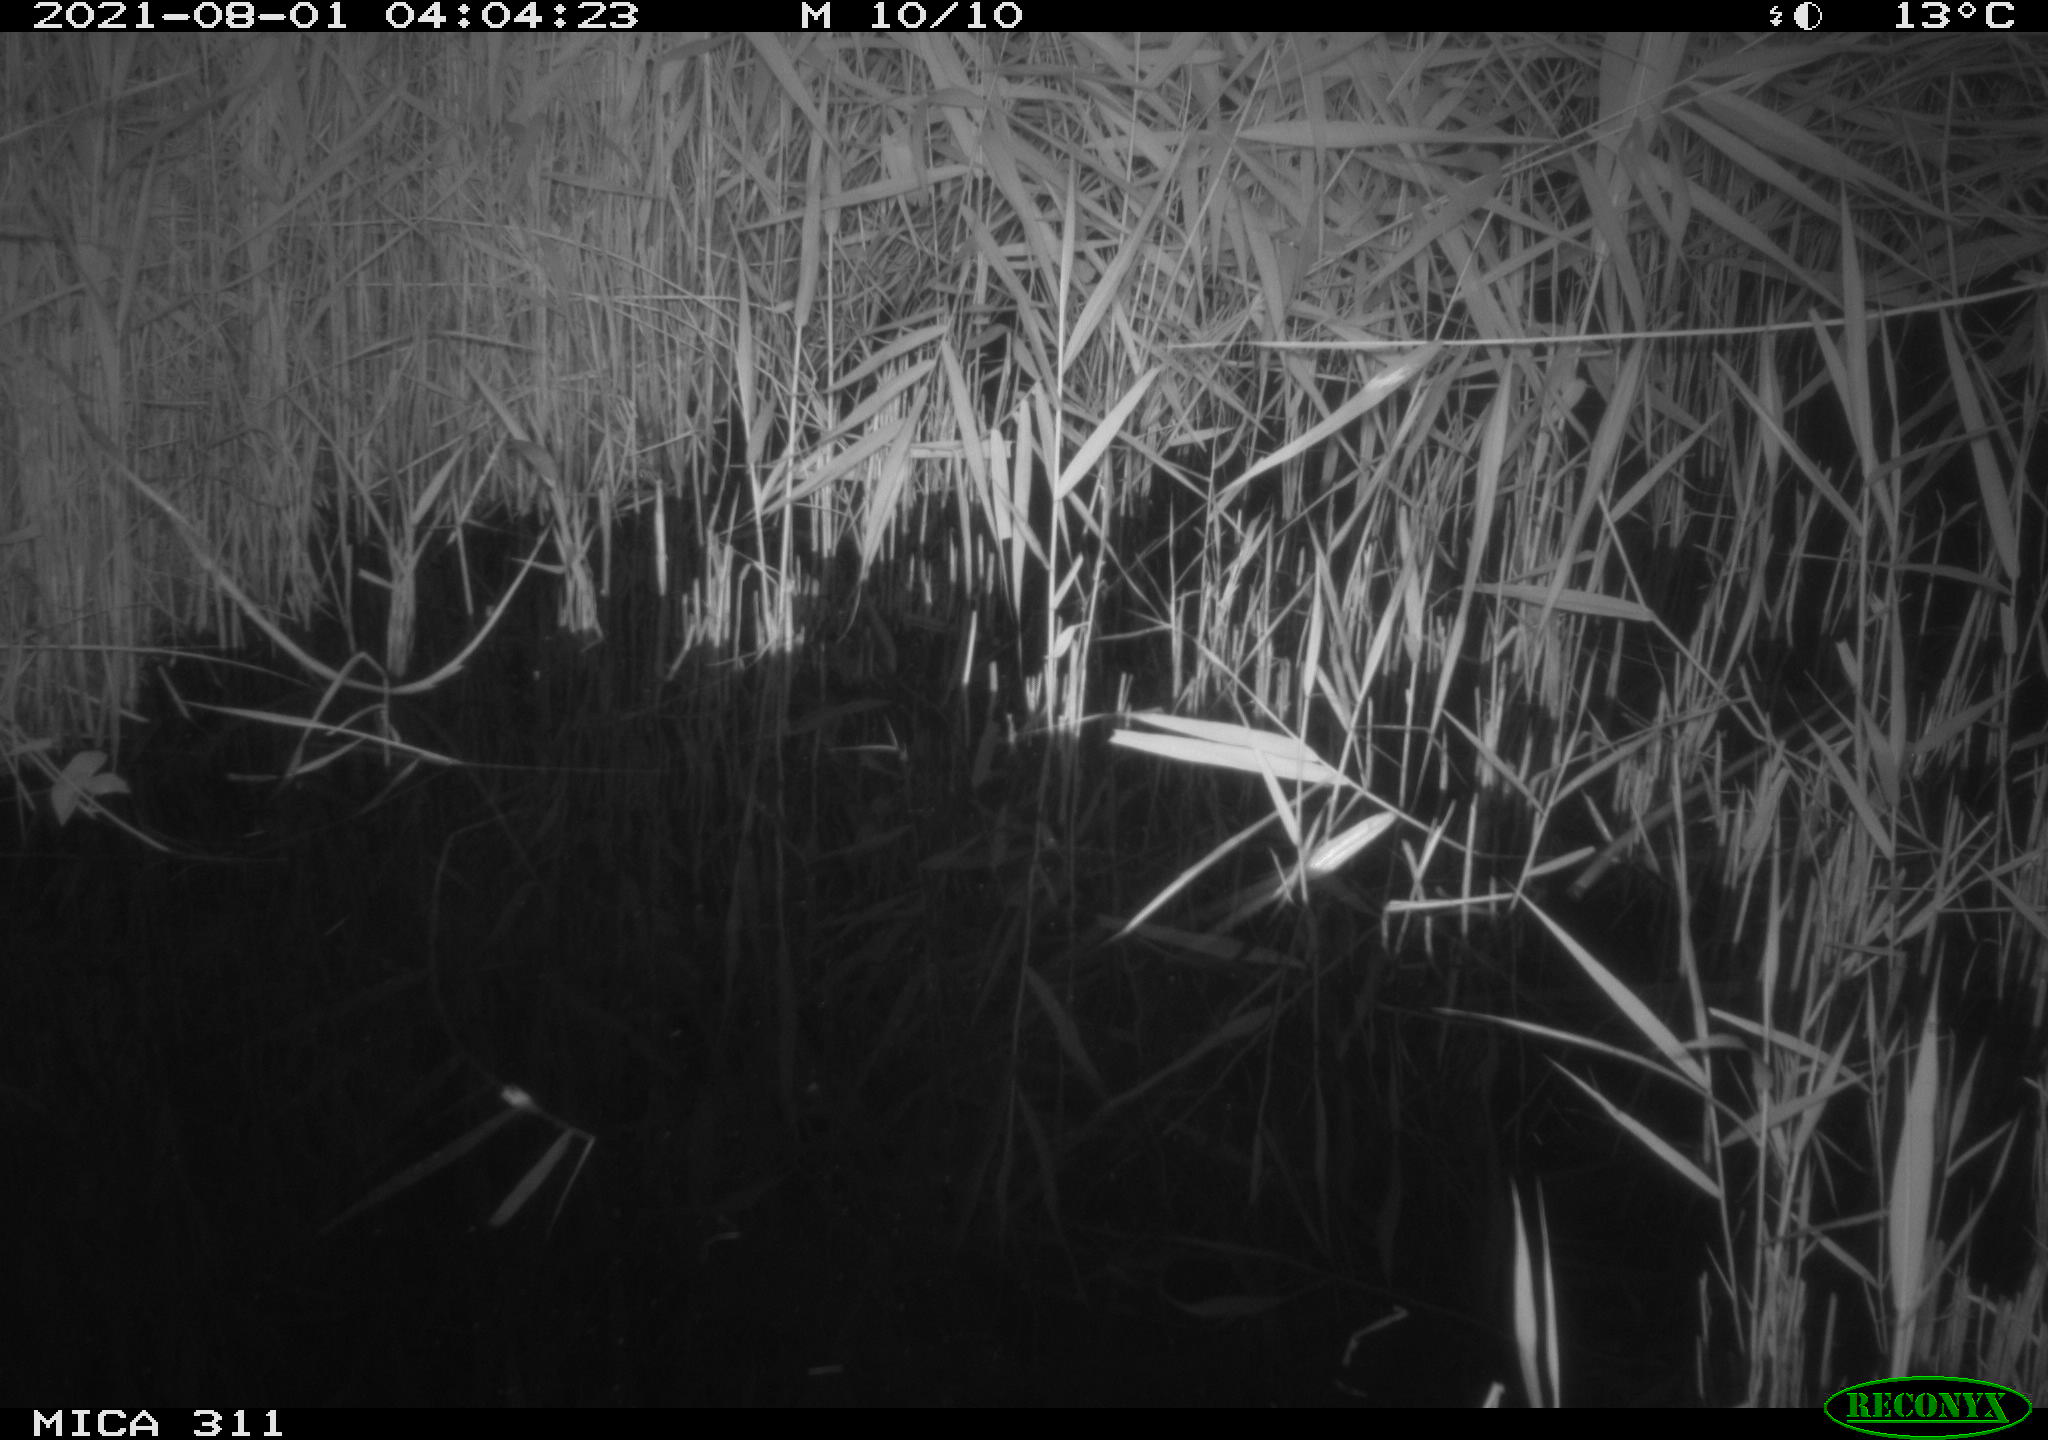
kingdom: Animalia
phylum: Chordata
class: Mammalia
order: Rodentia
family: Muridae
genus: Rattus
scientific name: Rattus norvegicus
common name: Brown rat
